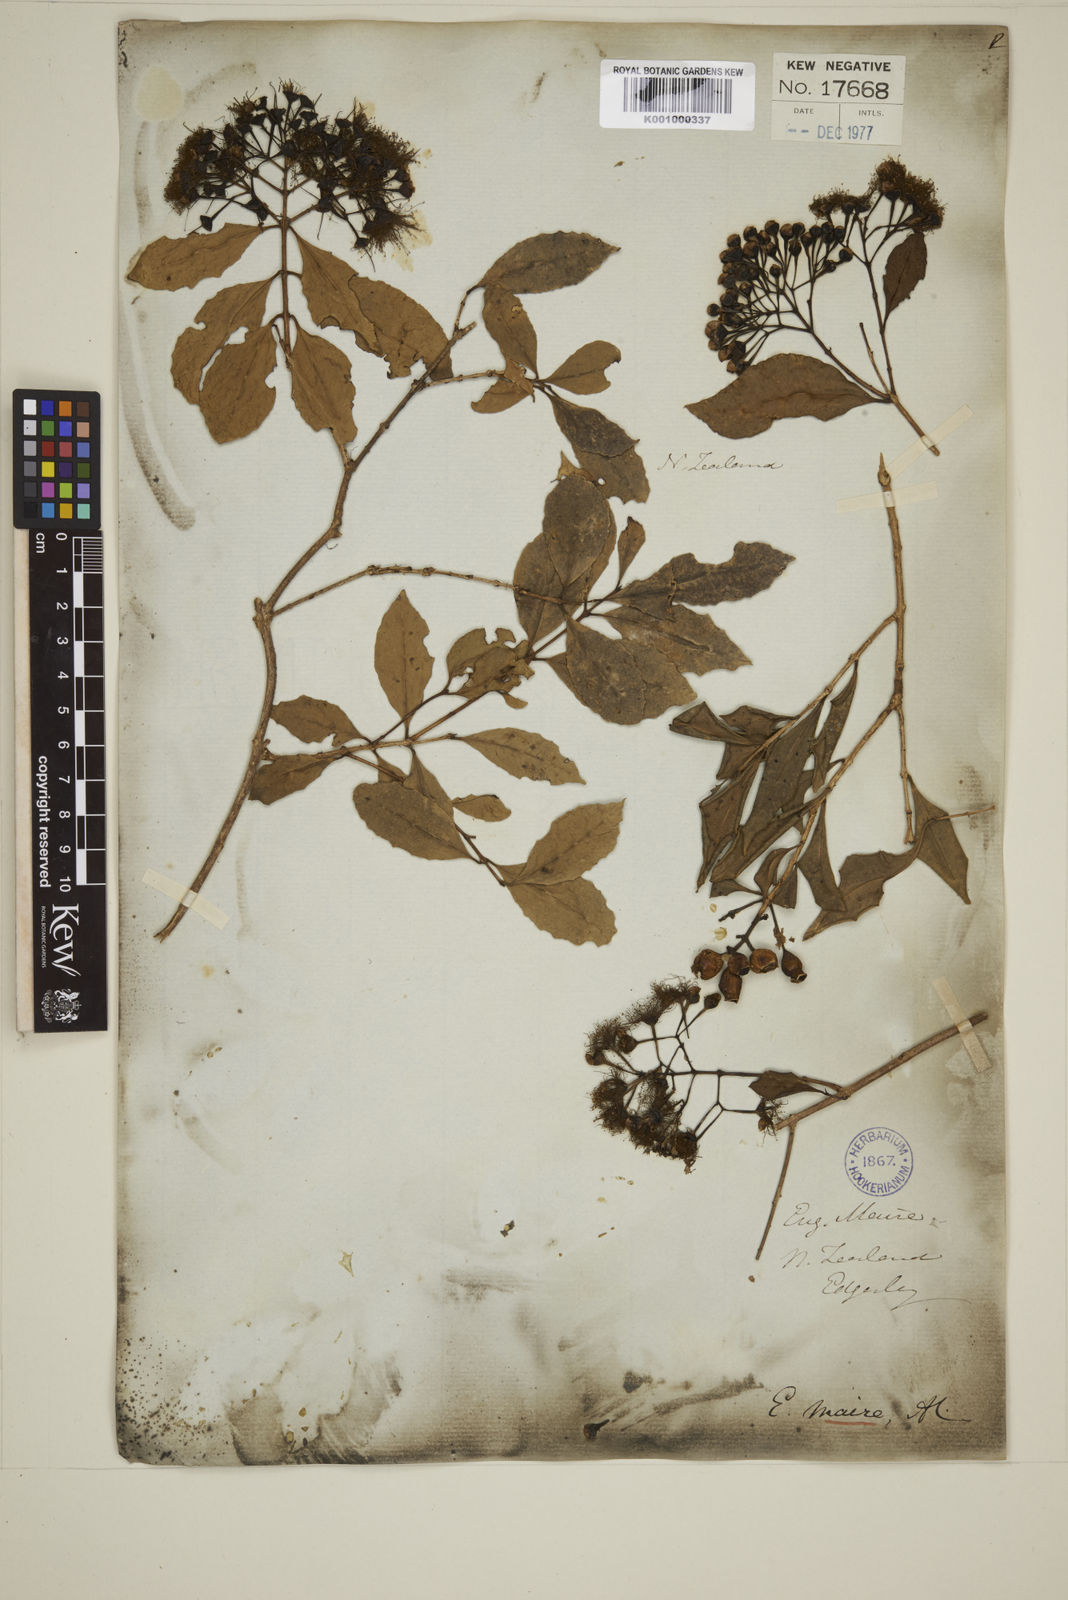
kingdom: Plantae
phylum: Tracheophyta
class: Magnoliopsida
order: Myrtales
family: Myrtaceae
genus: Syzygium
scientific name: Syzygium maire
